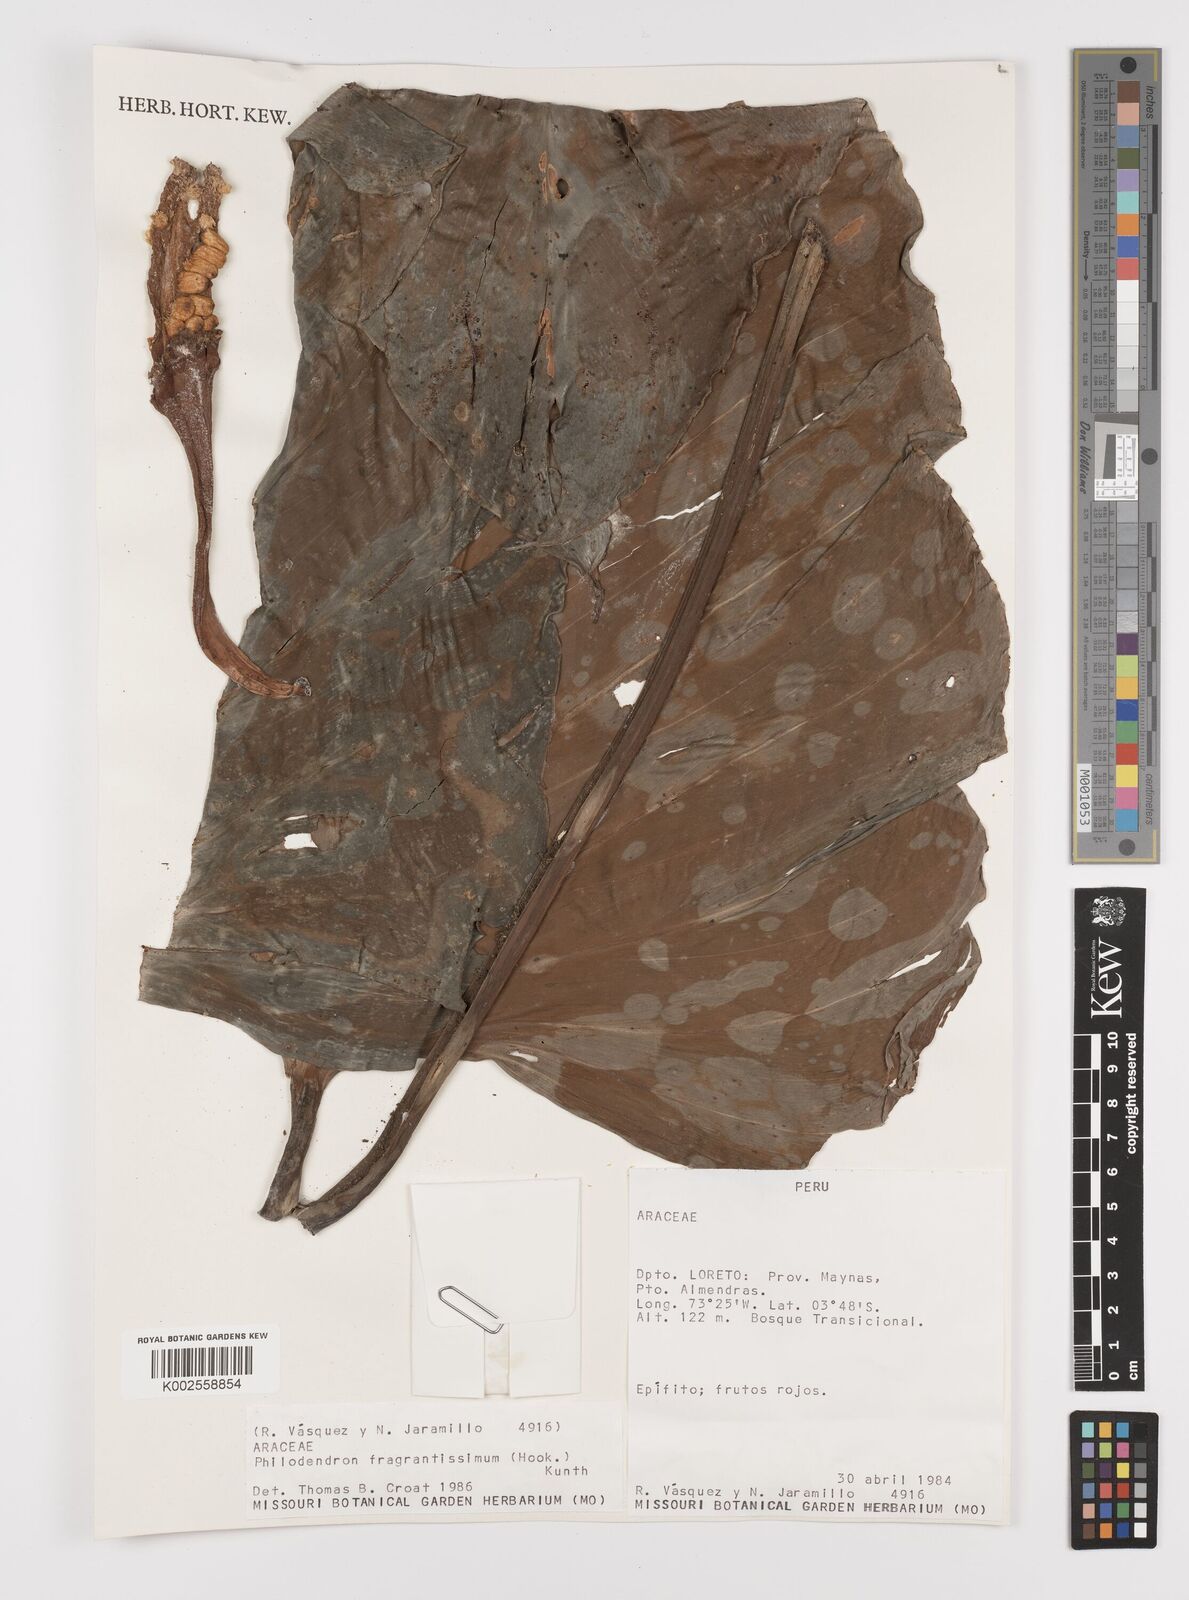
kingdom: Plantae
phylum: Tracheophyta
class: Liliopsida
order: Alismatales
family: Araceae
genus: Philodendron
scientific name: Philodendron fragrantissimum
